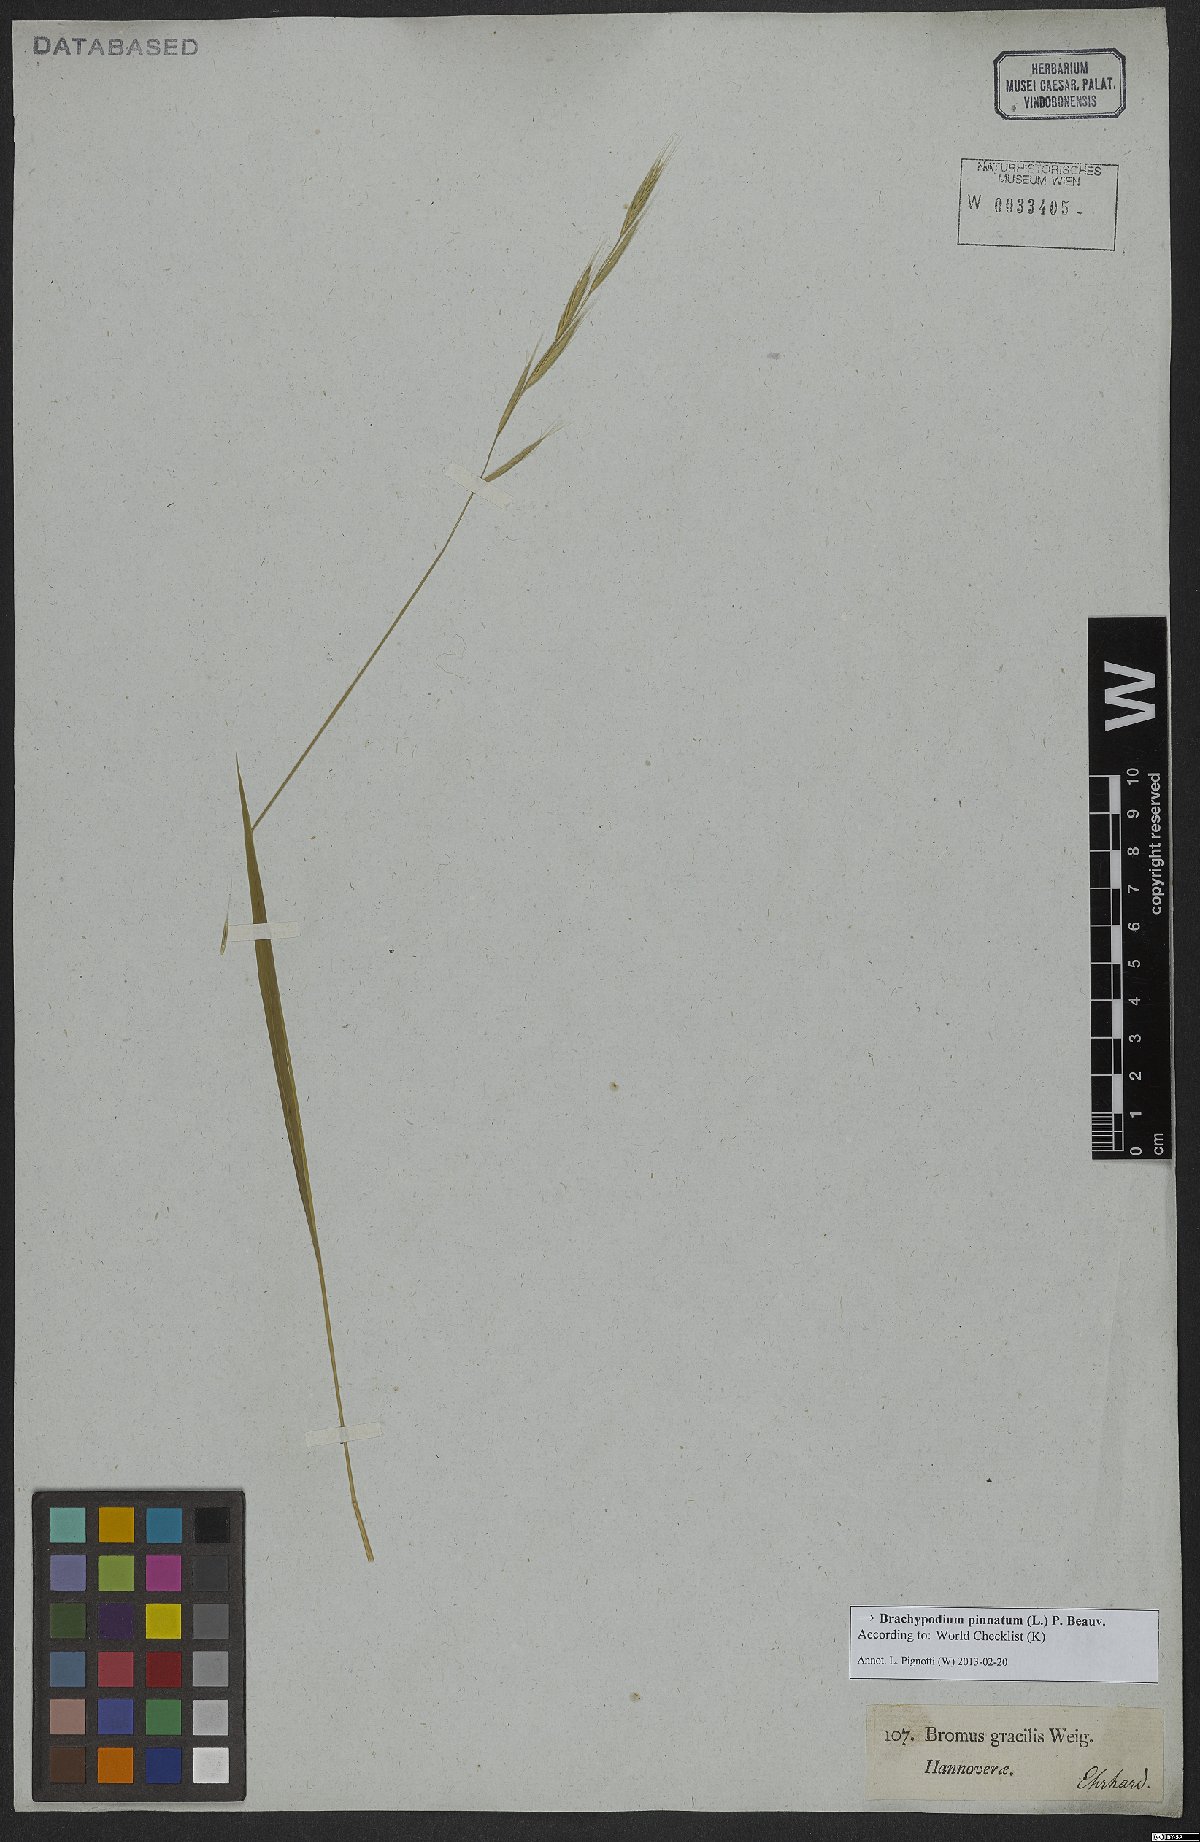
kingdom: Plantae
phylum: Tracheophyta
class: Liliopsida
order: Poales
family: Poaceae
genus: Brachypodium
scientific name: Brachypodium pinnatum
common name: Tor grass
